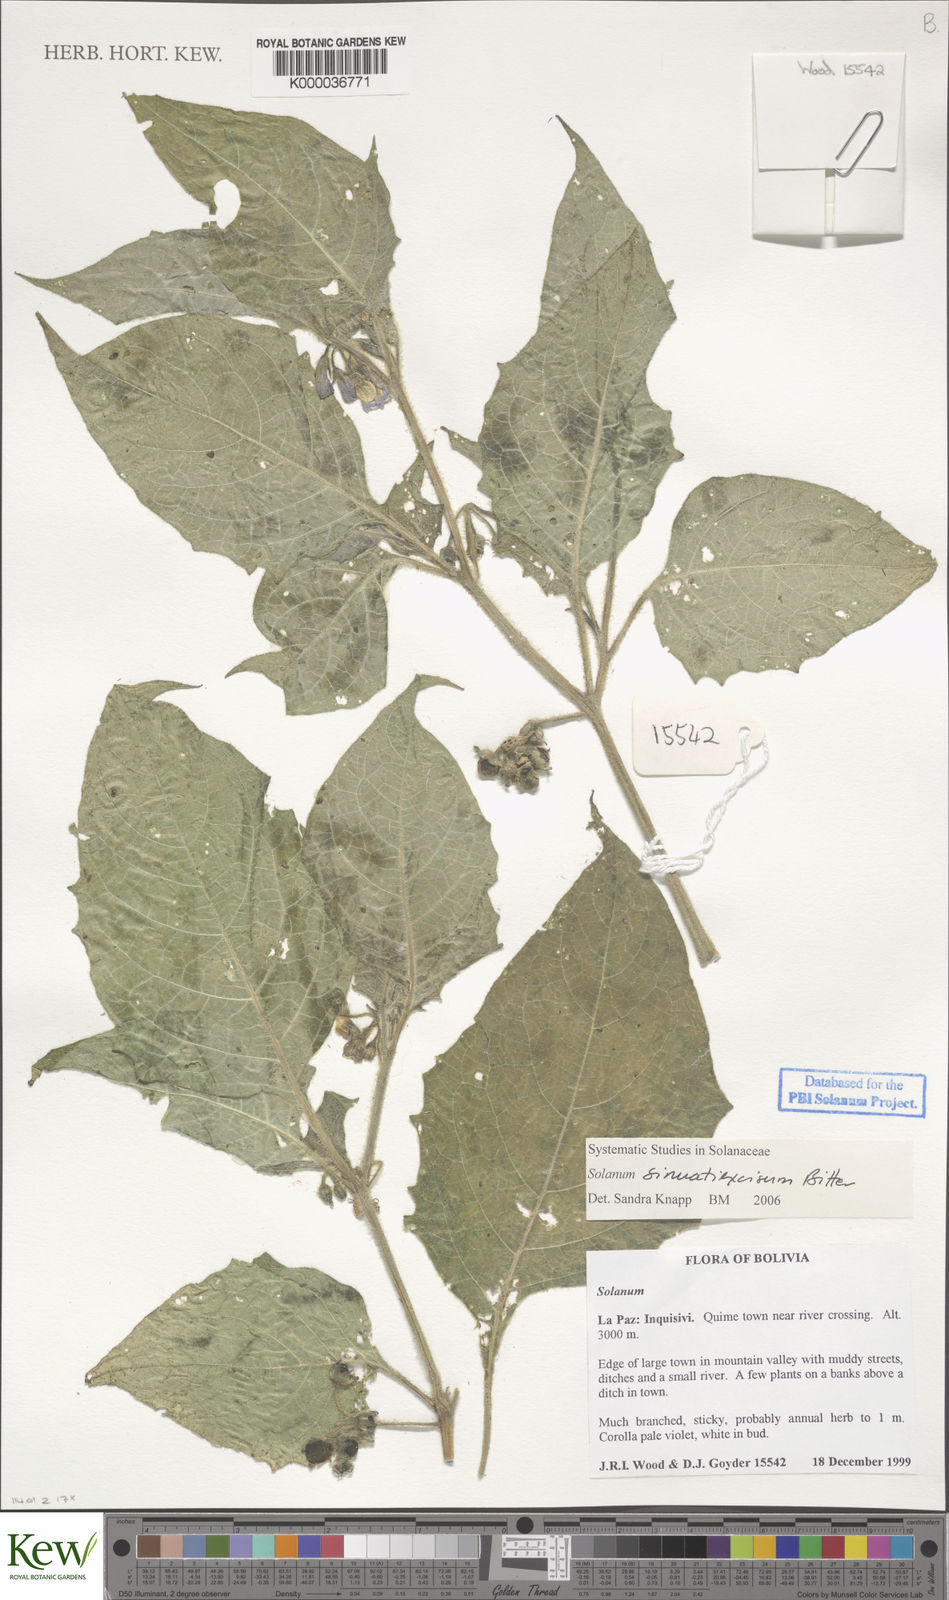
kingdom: Plantae
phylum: Tracheophyta
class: Magnoliopsida
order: Solanales
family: Solanaceae
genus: Solanum
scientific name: Solanum sinuatiexcisum
